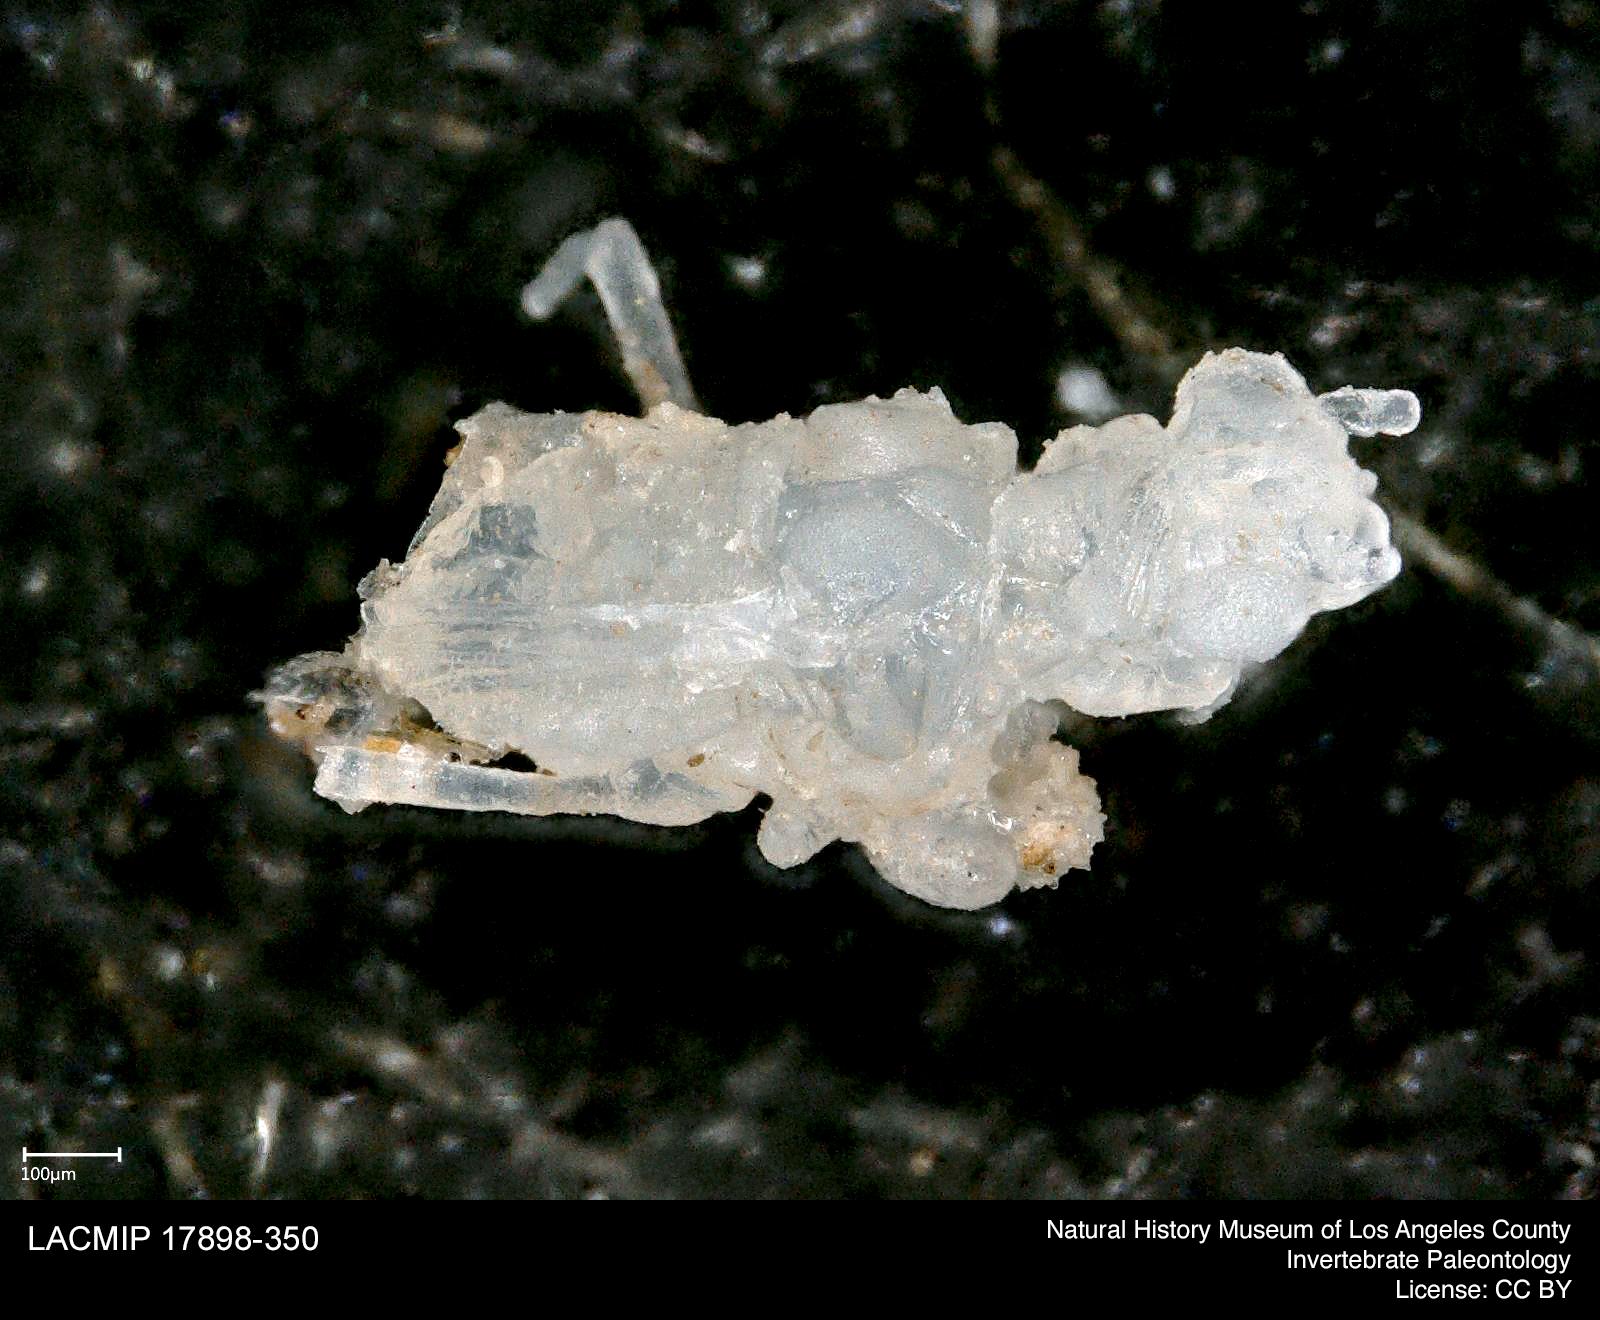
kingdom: Animalia
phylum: Arthropoda
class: Insecta
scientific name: Insecta
